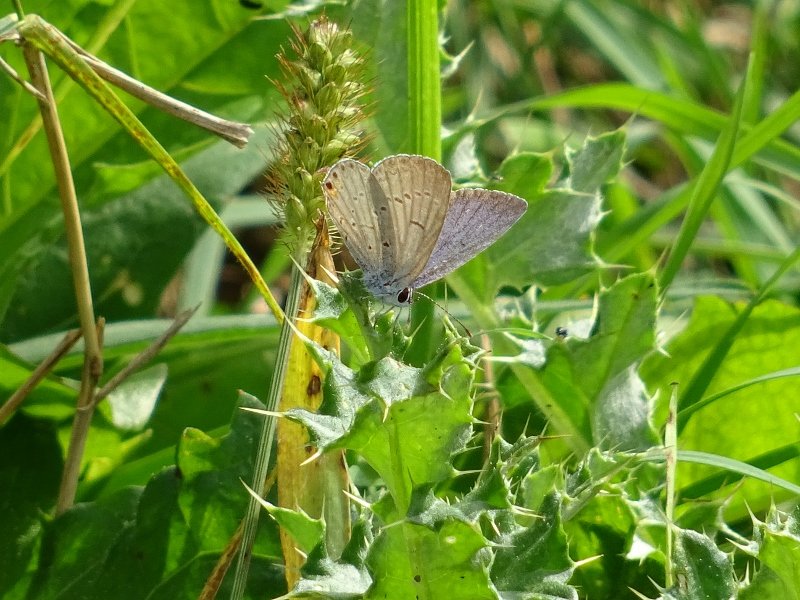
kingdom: Animalia
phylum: Arthropoda
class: Insecta
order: Lepidoptera
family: Lycaenidae
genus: Elkalyce
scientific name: Elkalyce comyntas
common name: Eastern Tailed-Blue
